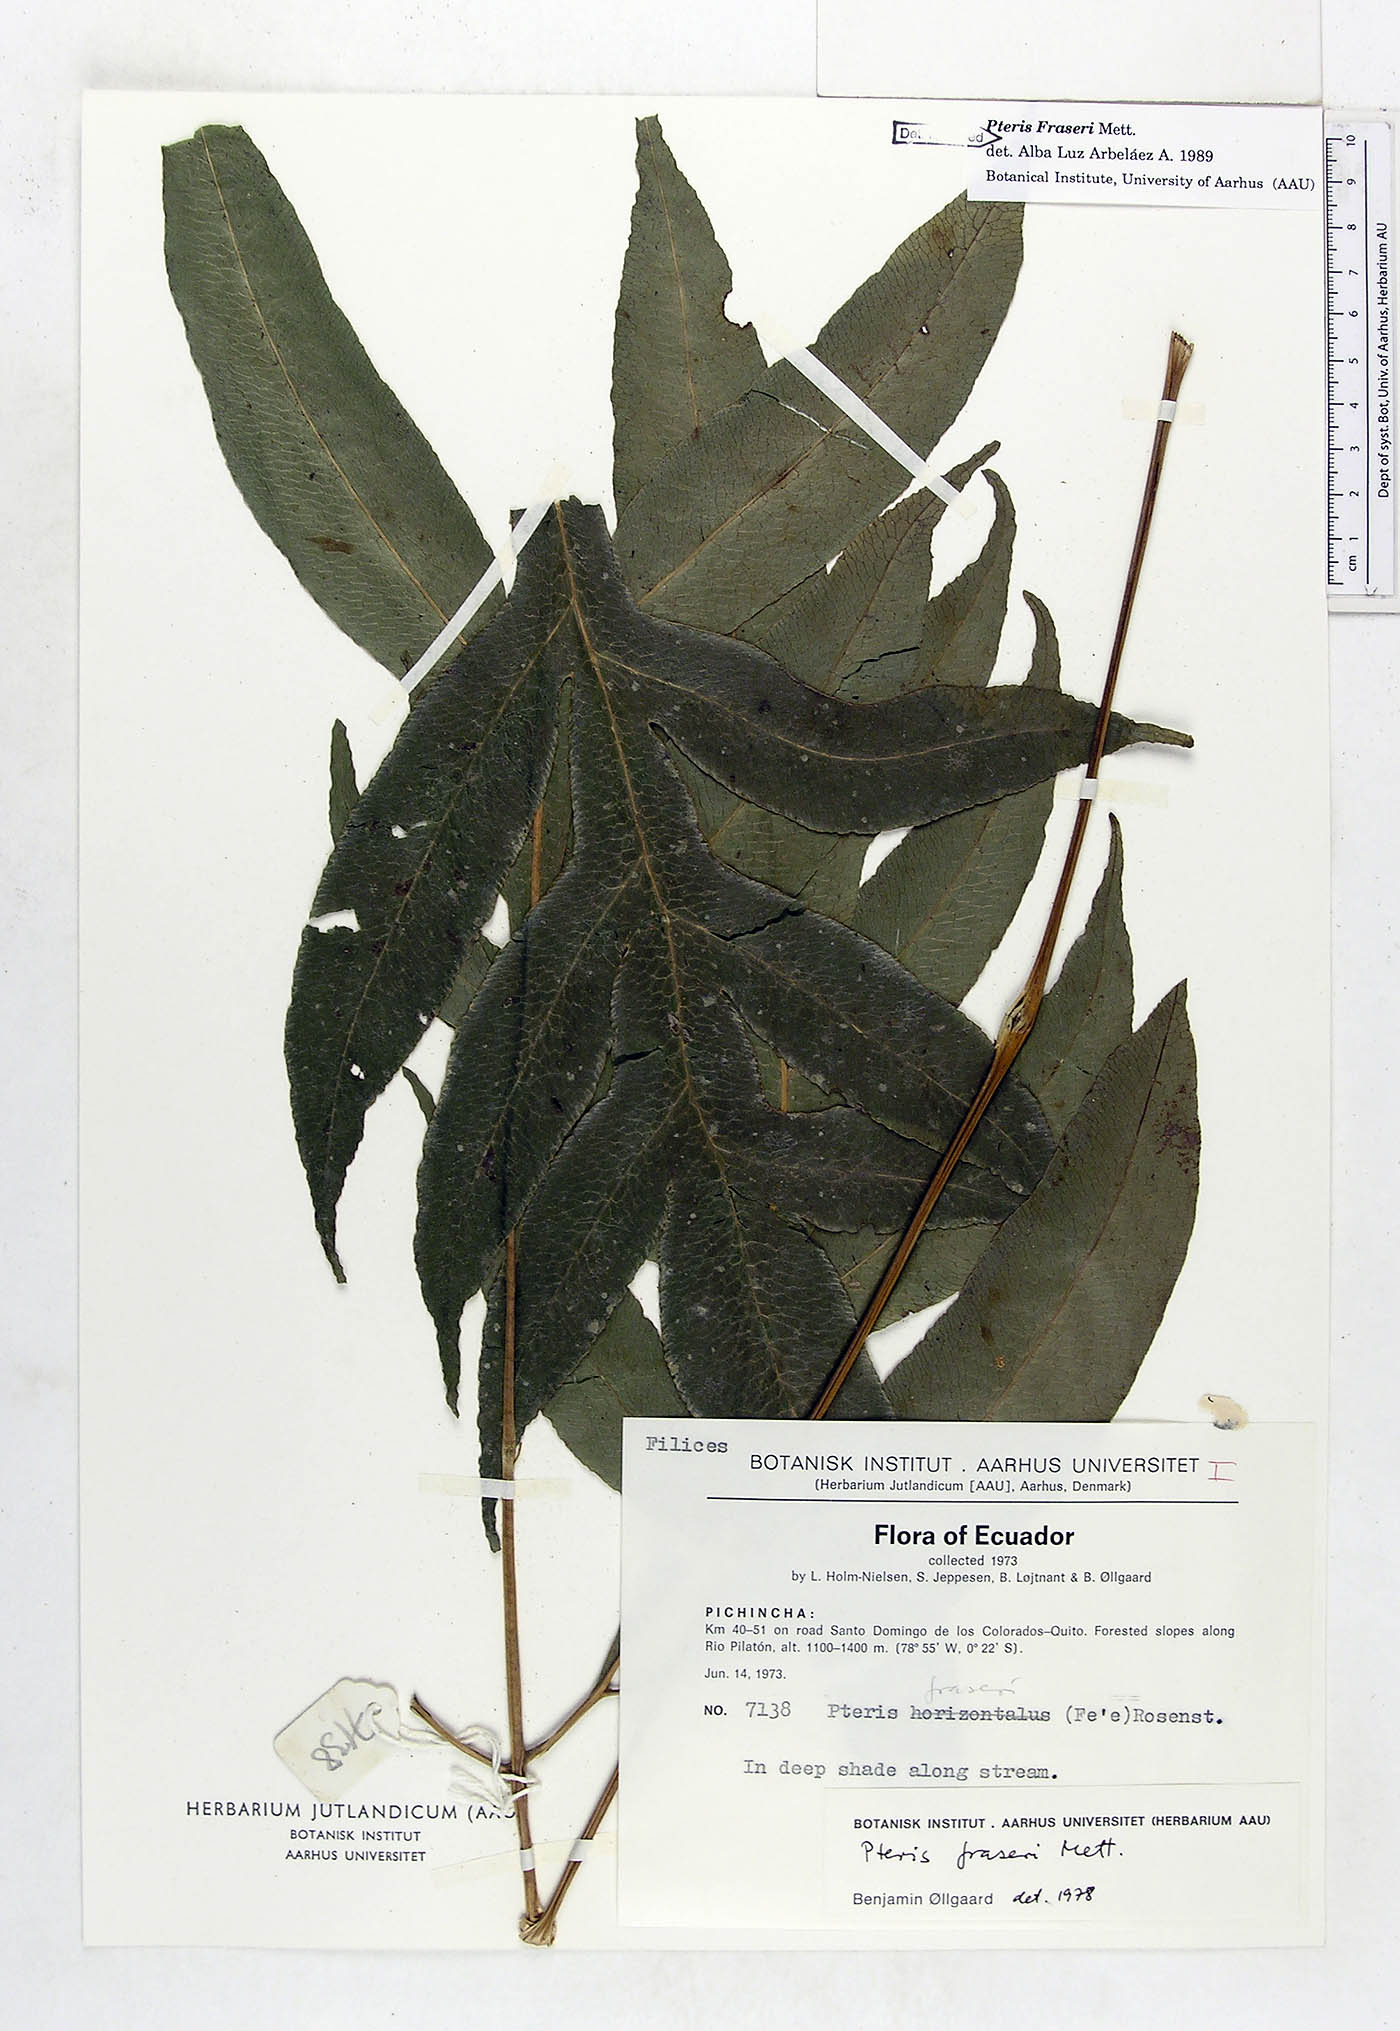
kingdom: Plantae
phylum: Tracheophyta
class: Polypodiopsida
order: Polypodiales
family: Pteridaceae
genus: Pteris
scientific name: Pteris fraseri
